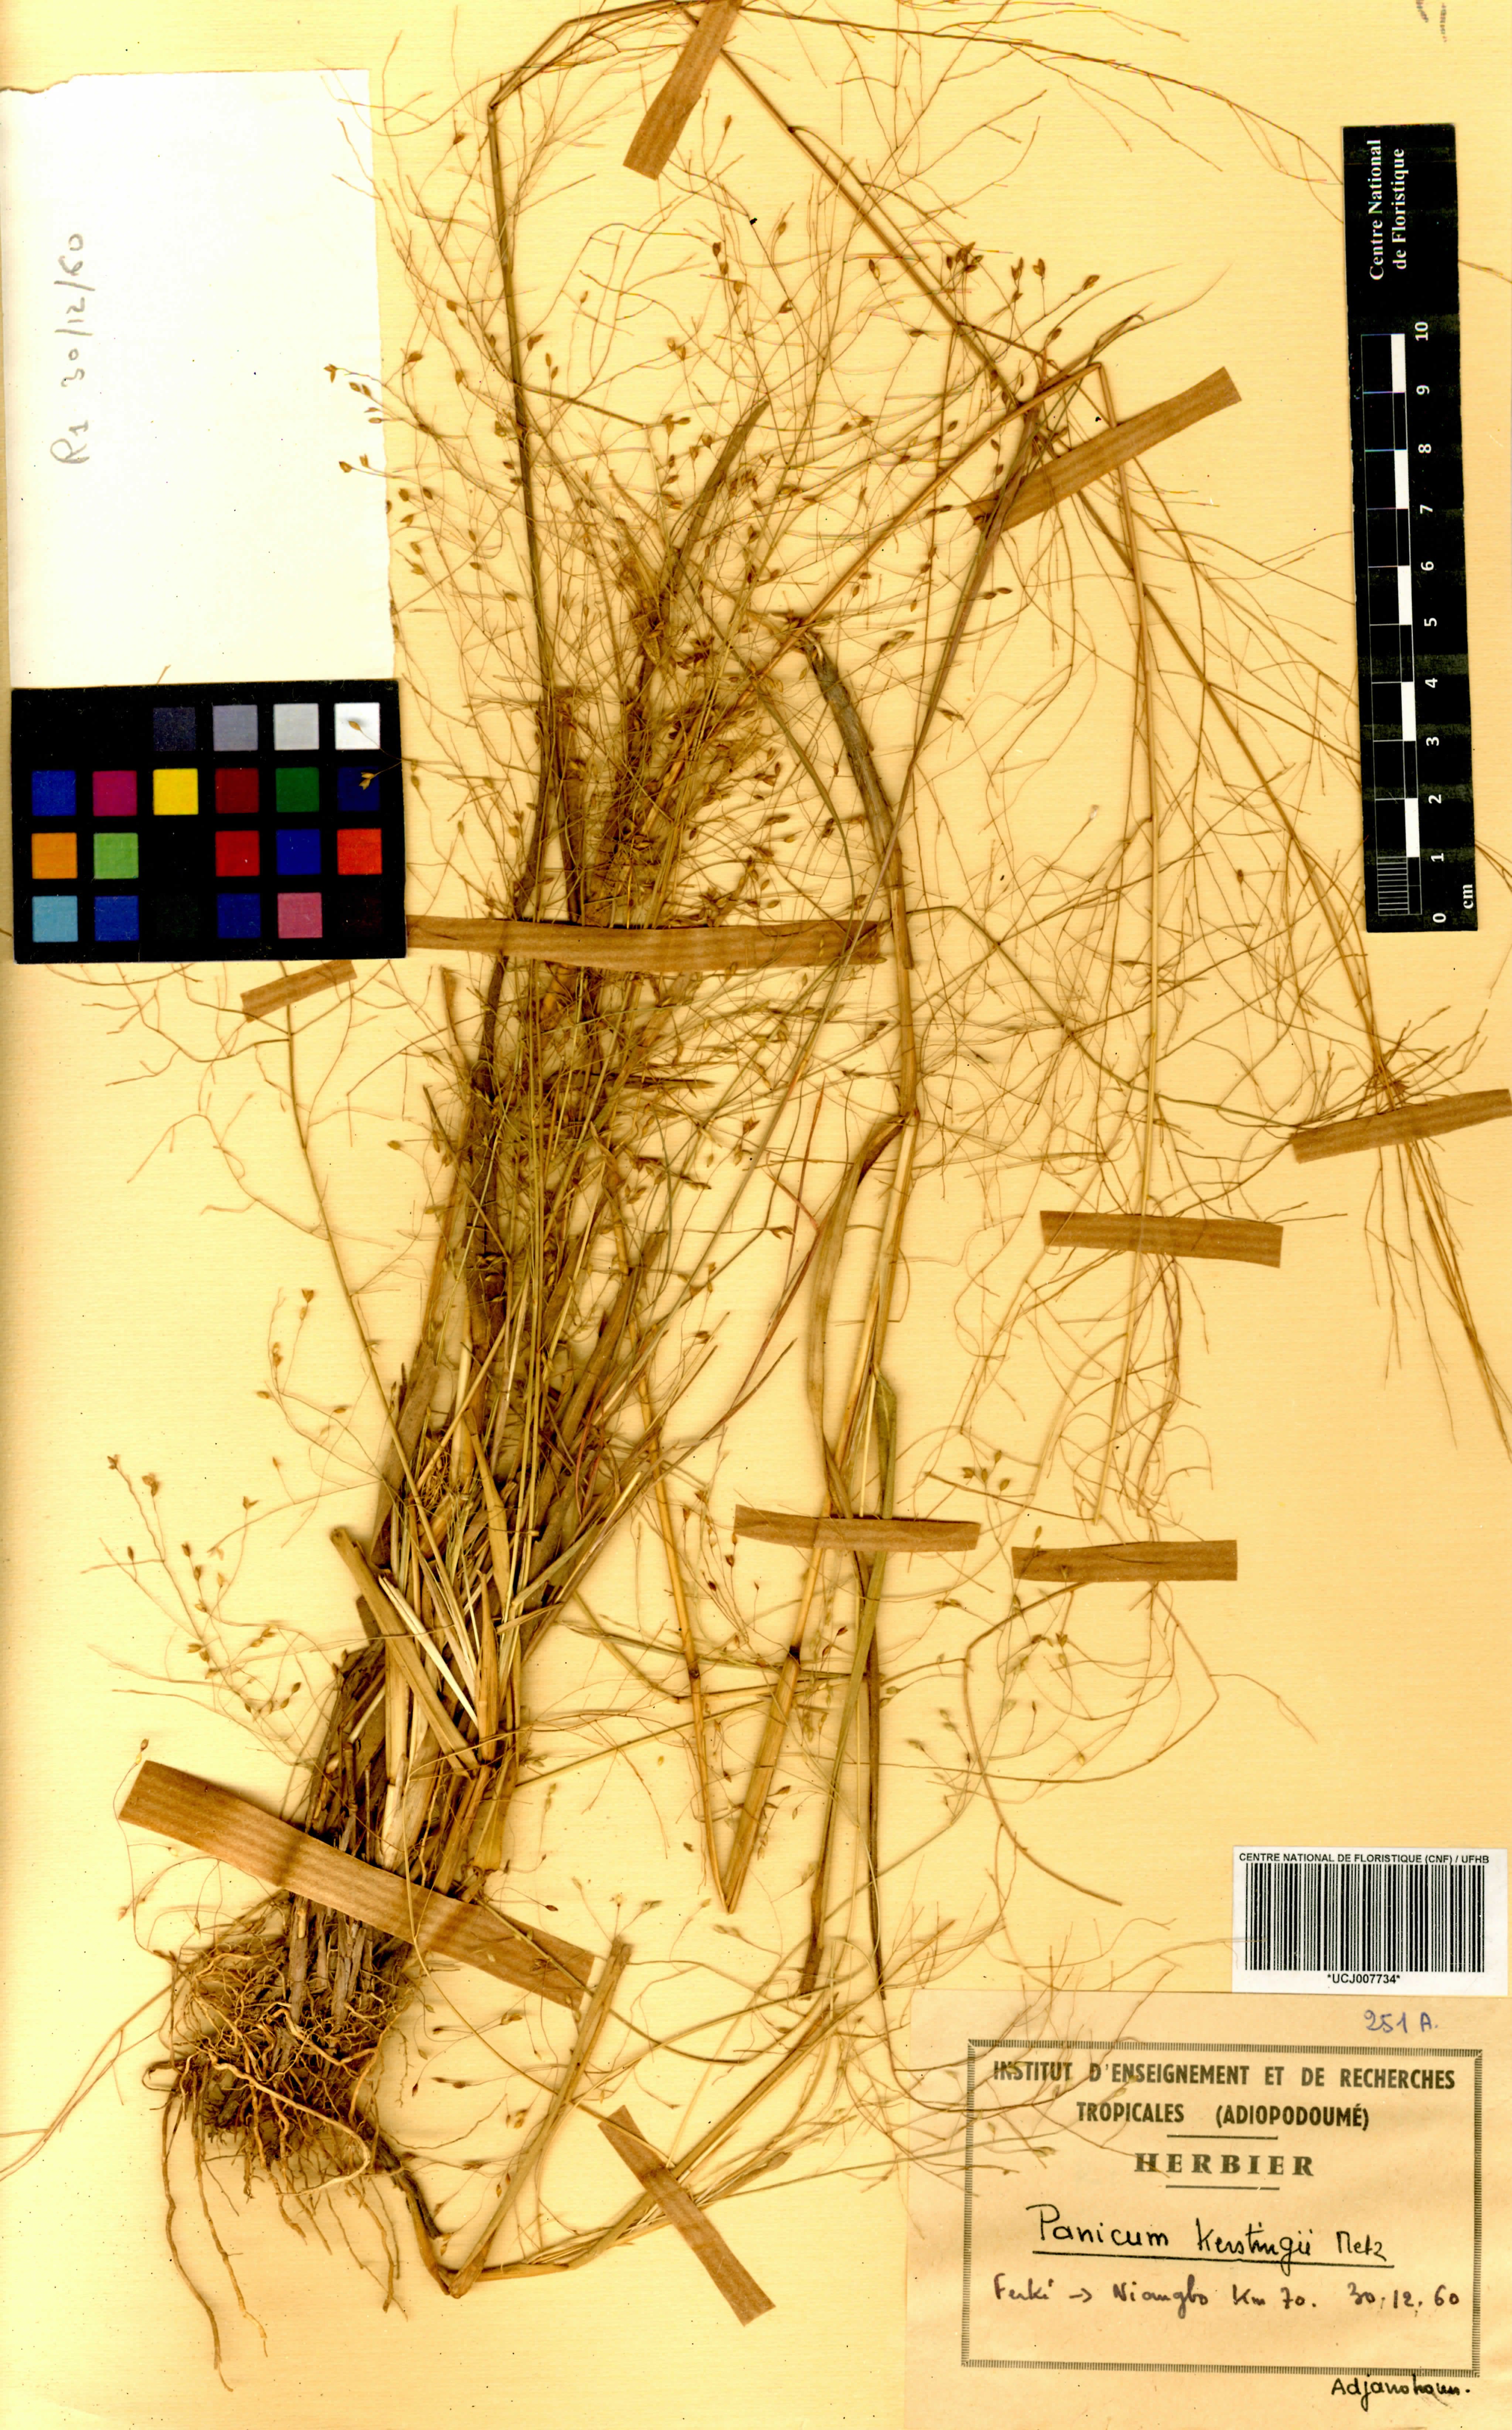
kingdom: Plantae
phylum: Tracheophyta
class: Liliopsida
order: Poales
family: Poaceae
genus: Panicum
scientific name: Panicum pansum
